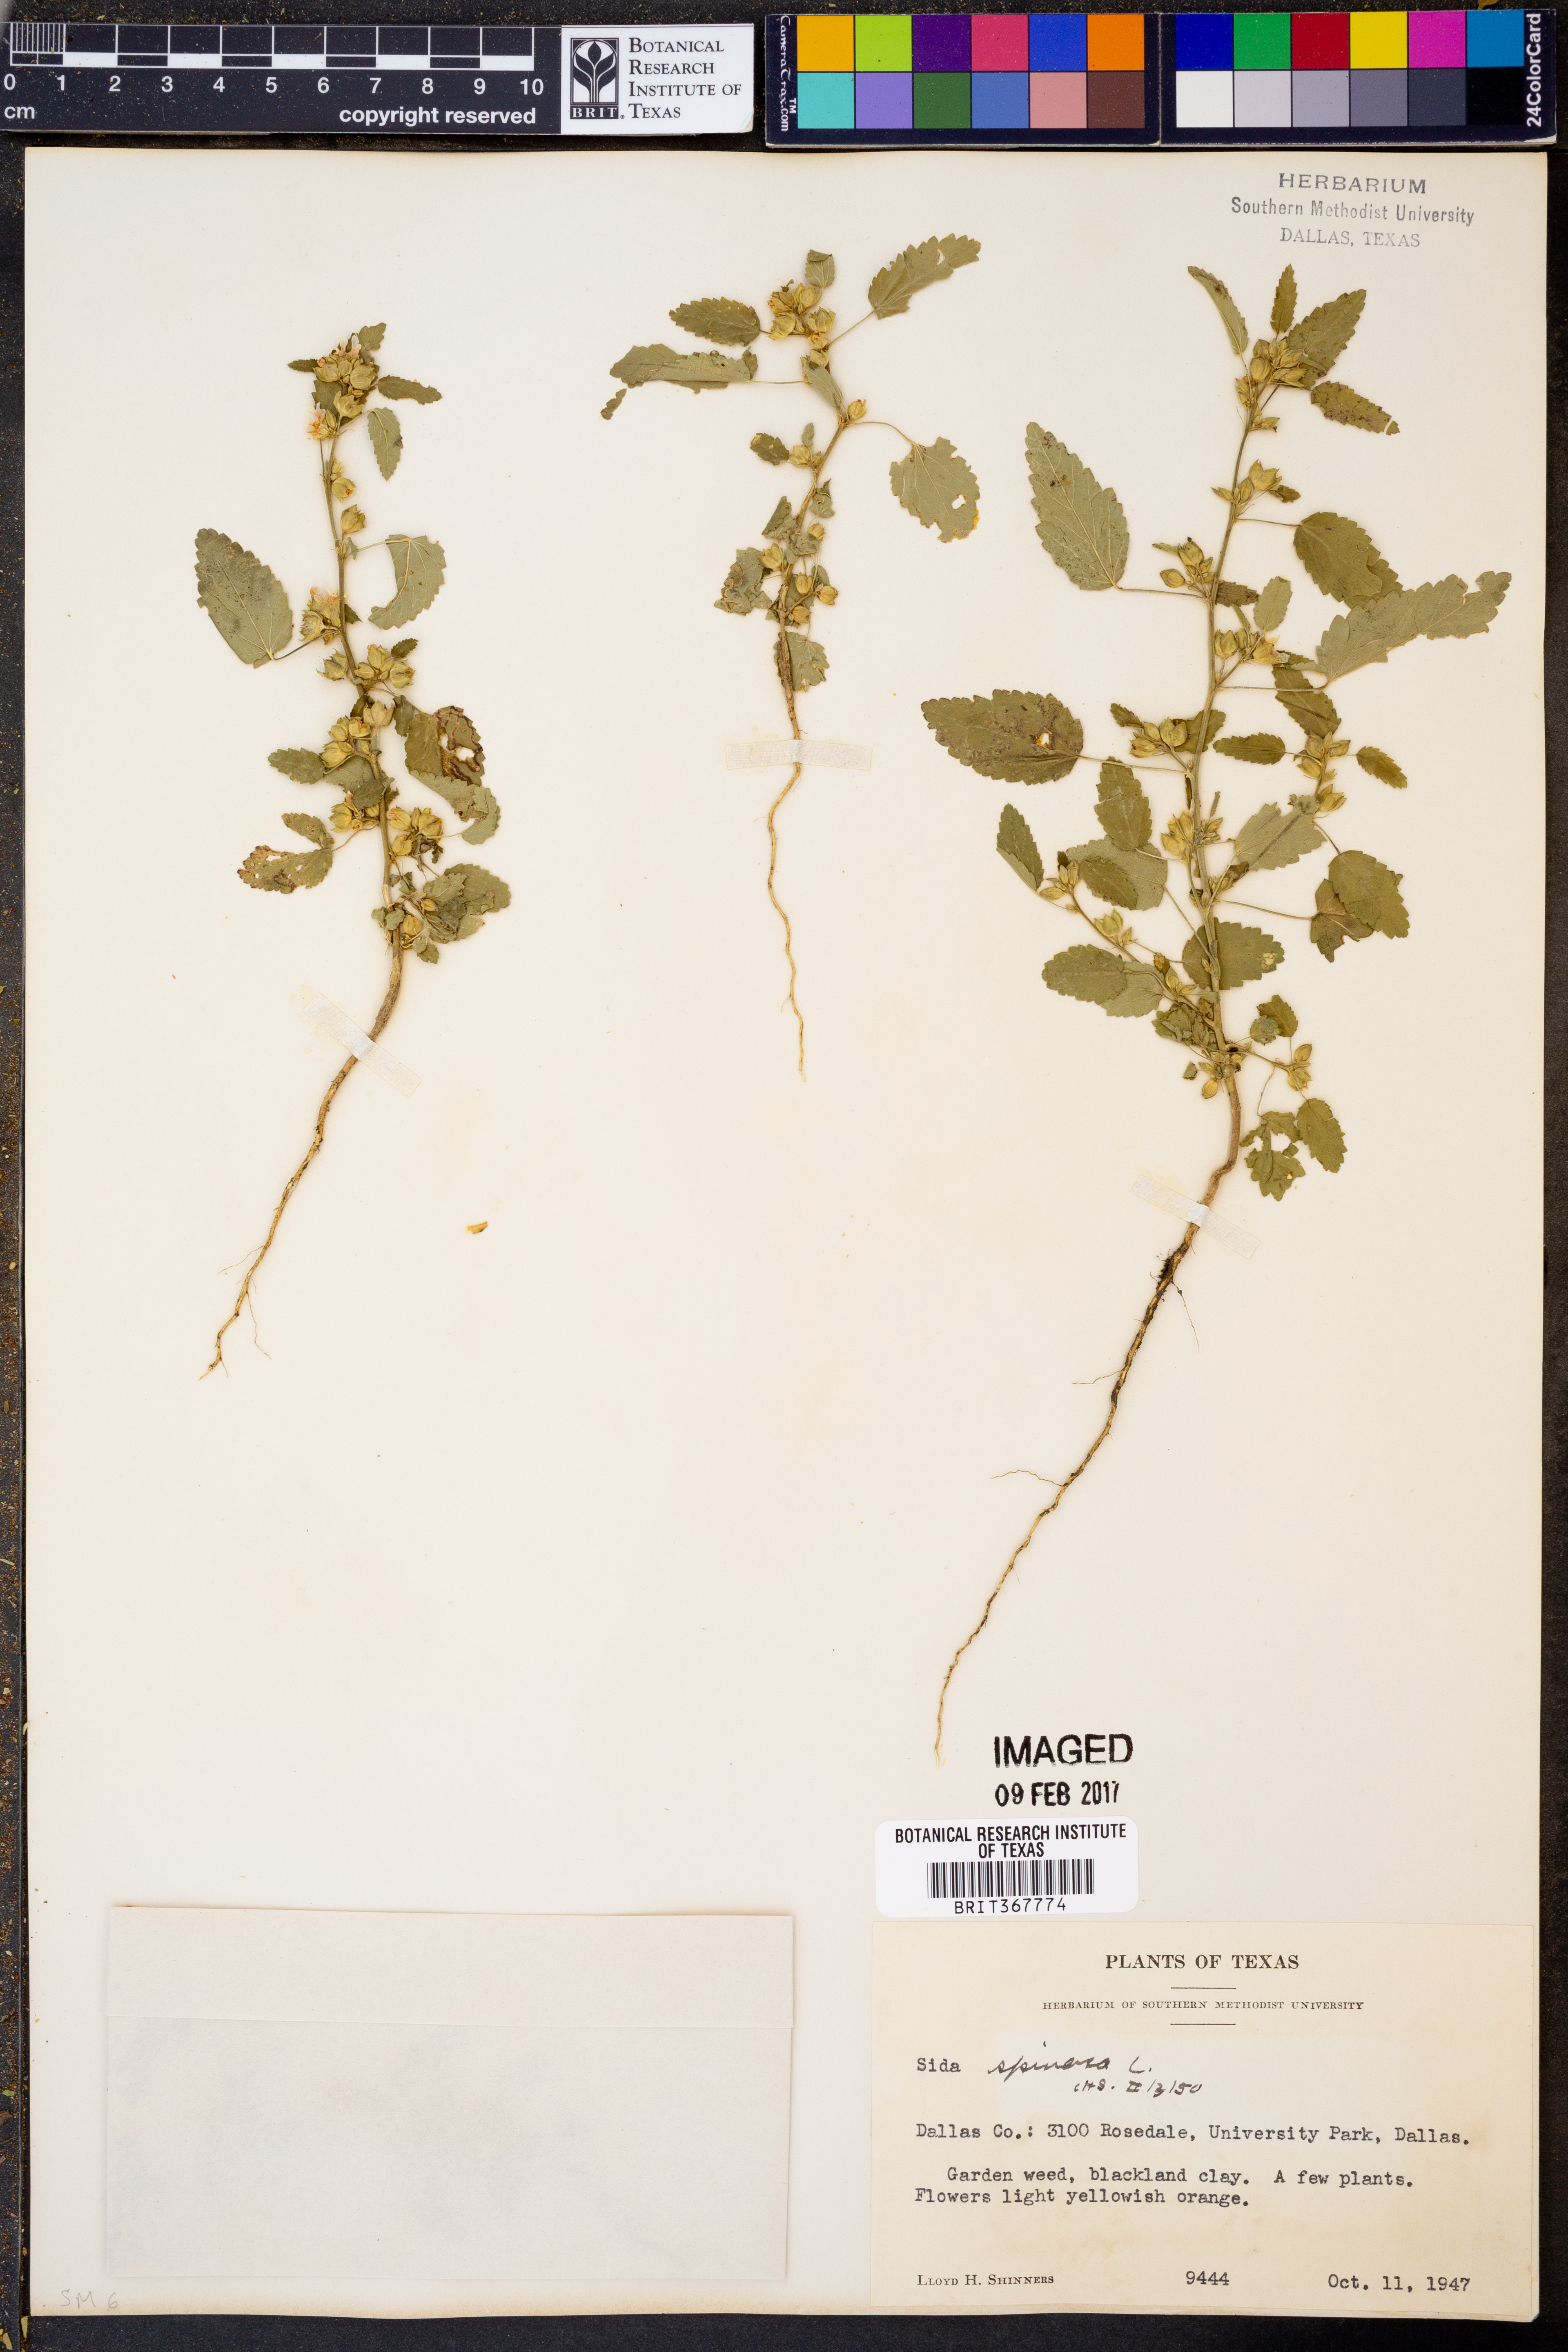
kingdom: Plantae
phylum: Tracheophyta
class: Magnoliopsida
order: Malvales
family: Malvaceae
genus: Sida
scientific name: Sida spinosa
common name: Prickly fanpetals
